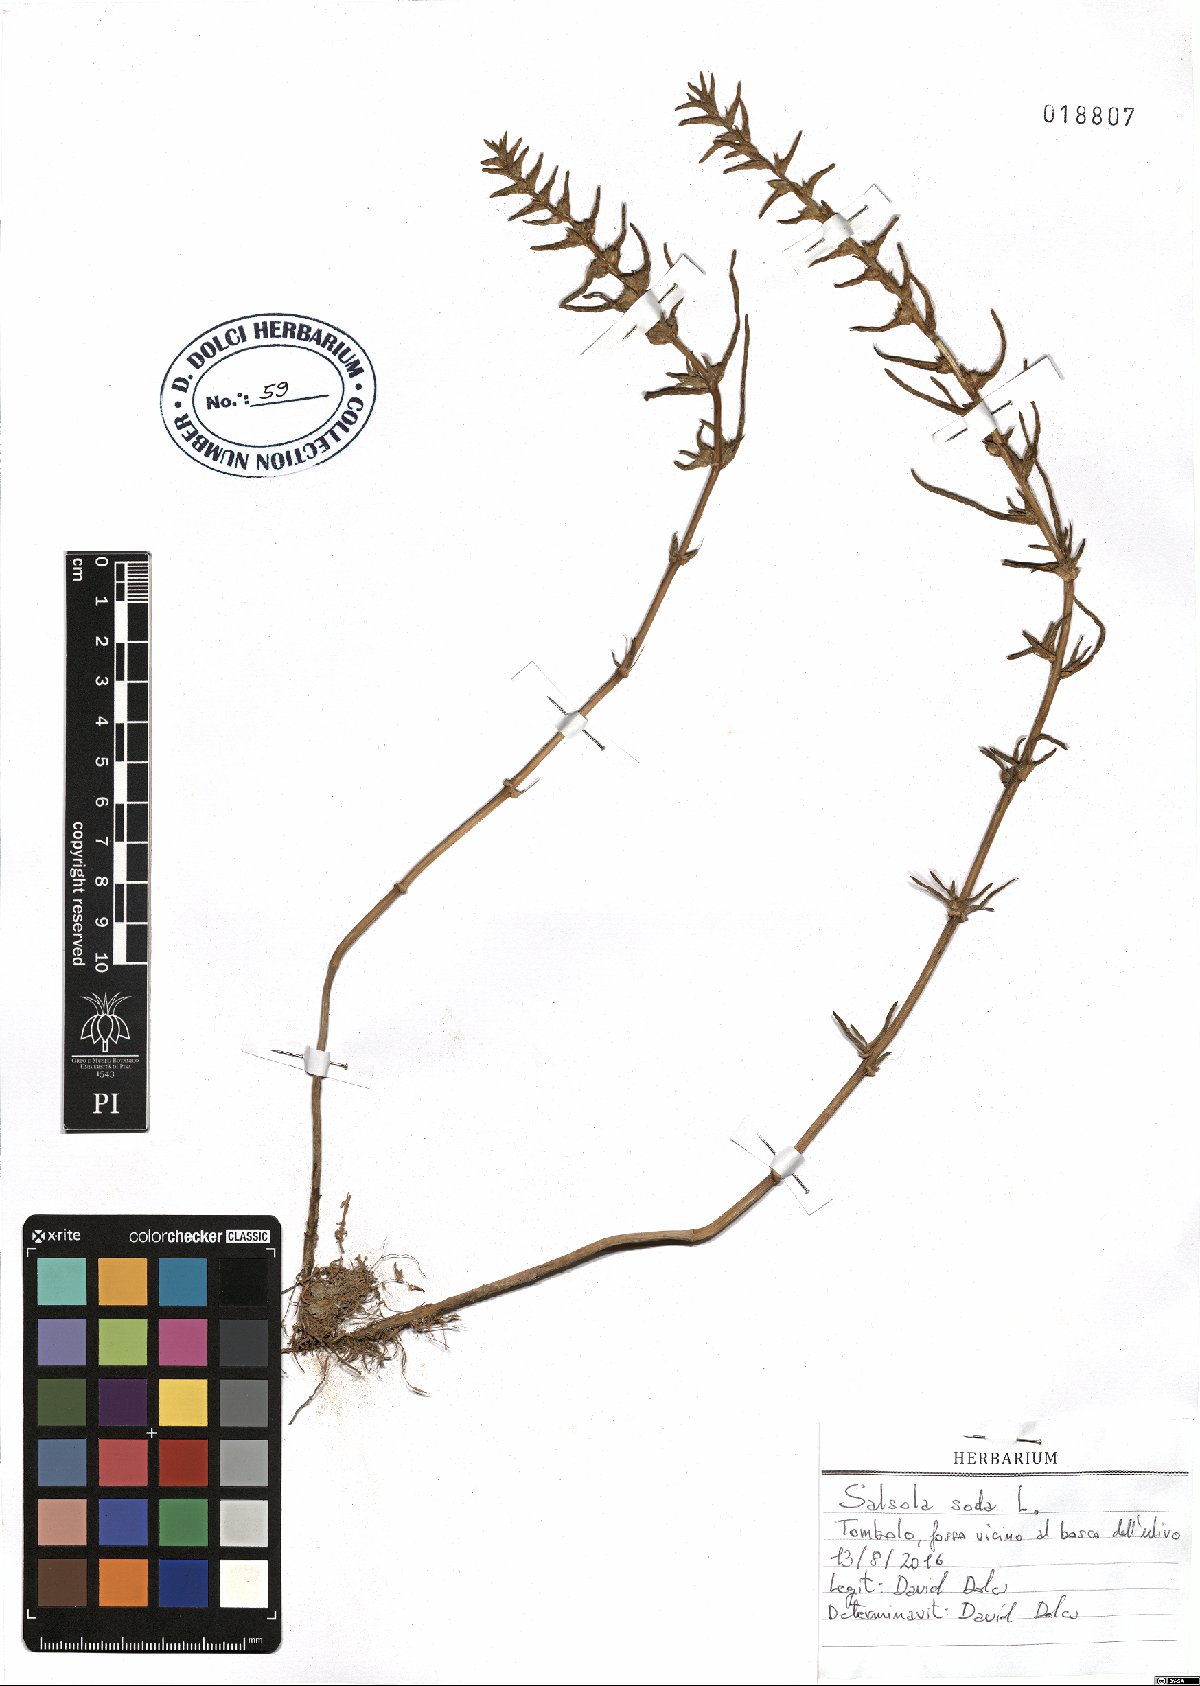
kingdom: Plantae
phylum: Tracheophyta
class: Magnoliopsida
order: Caryophyllales
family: Amaranthaceae
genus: Soda
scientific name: Soda inermis
